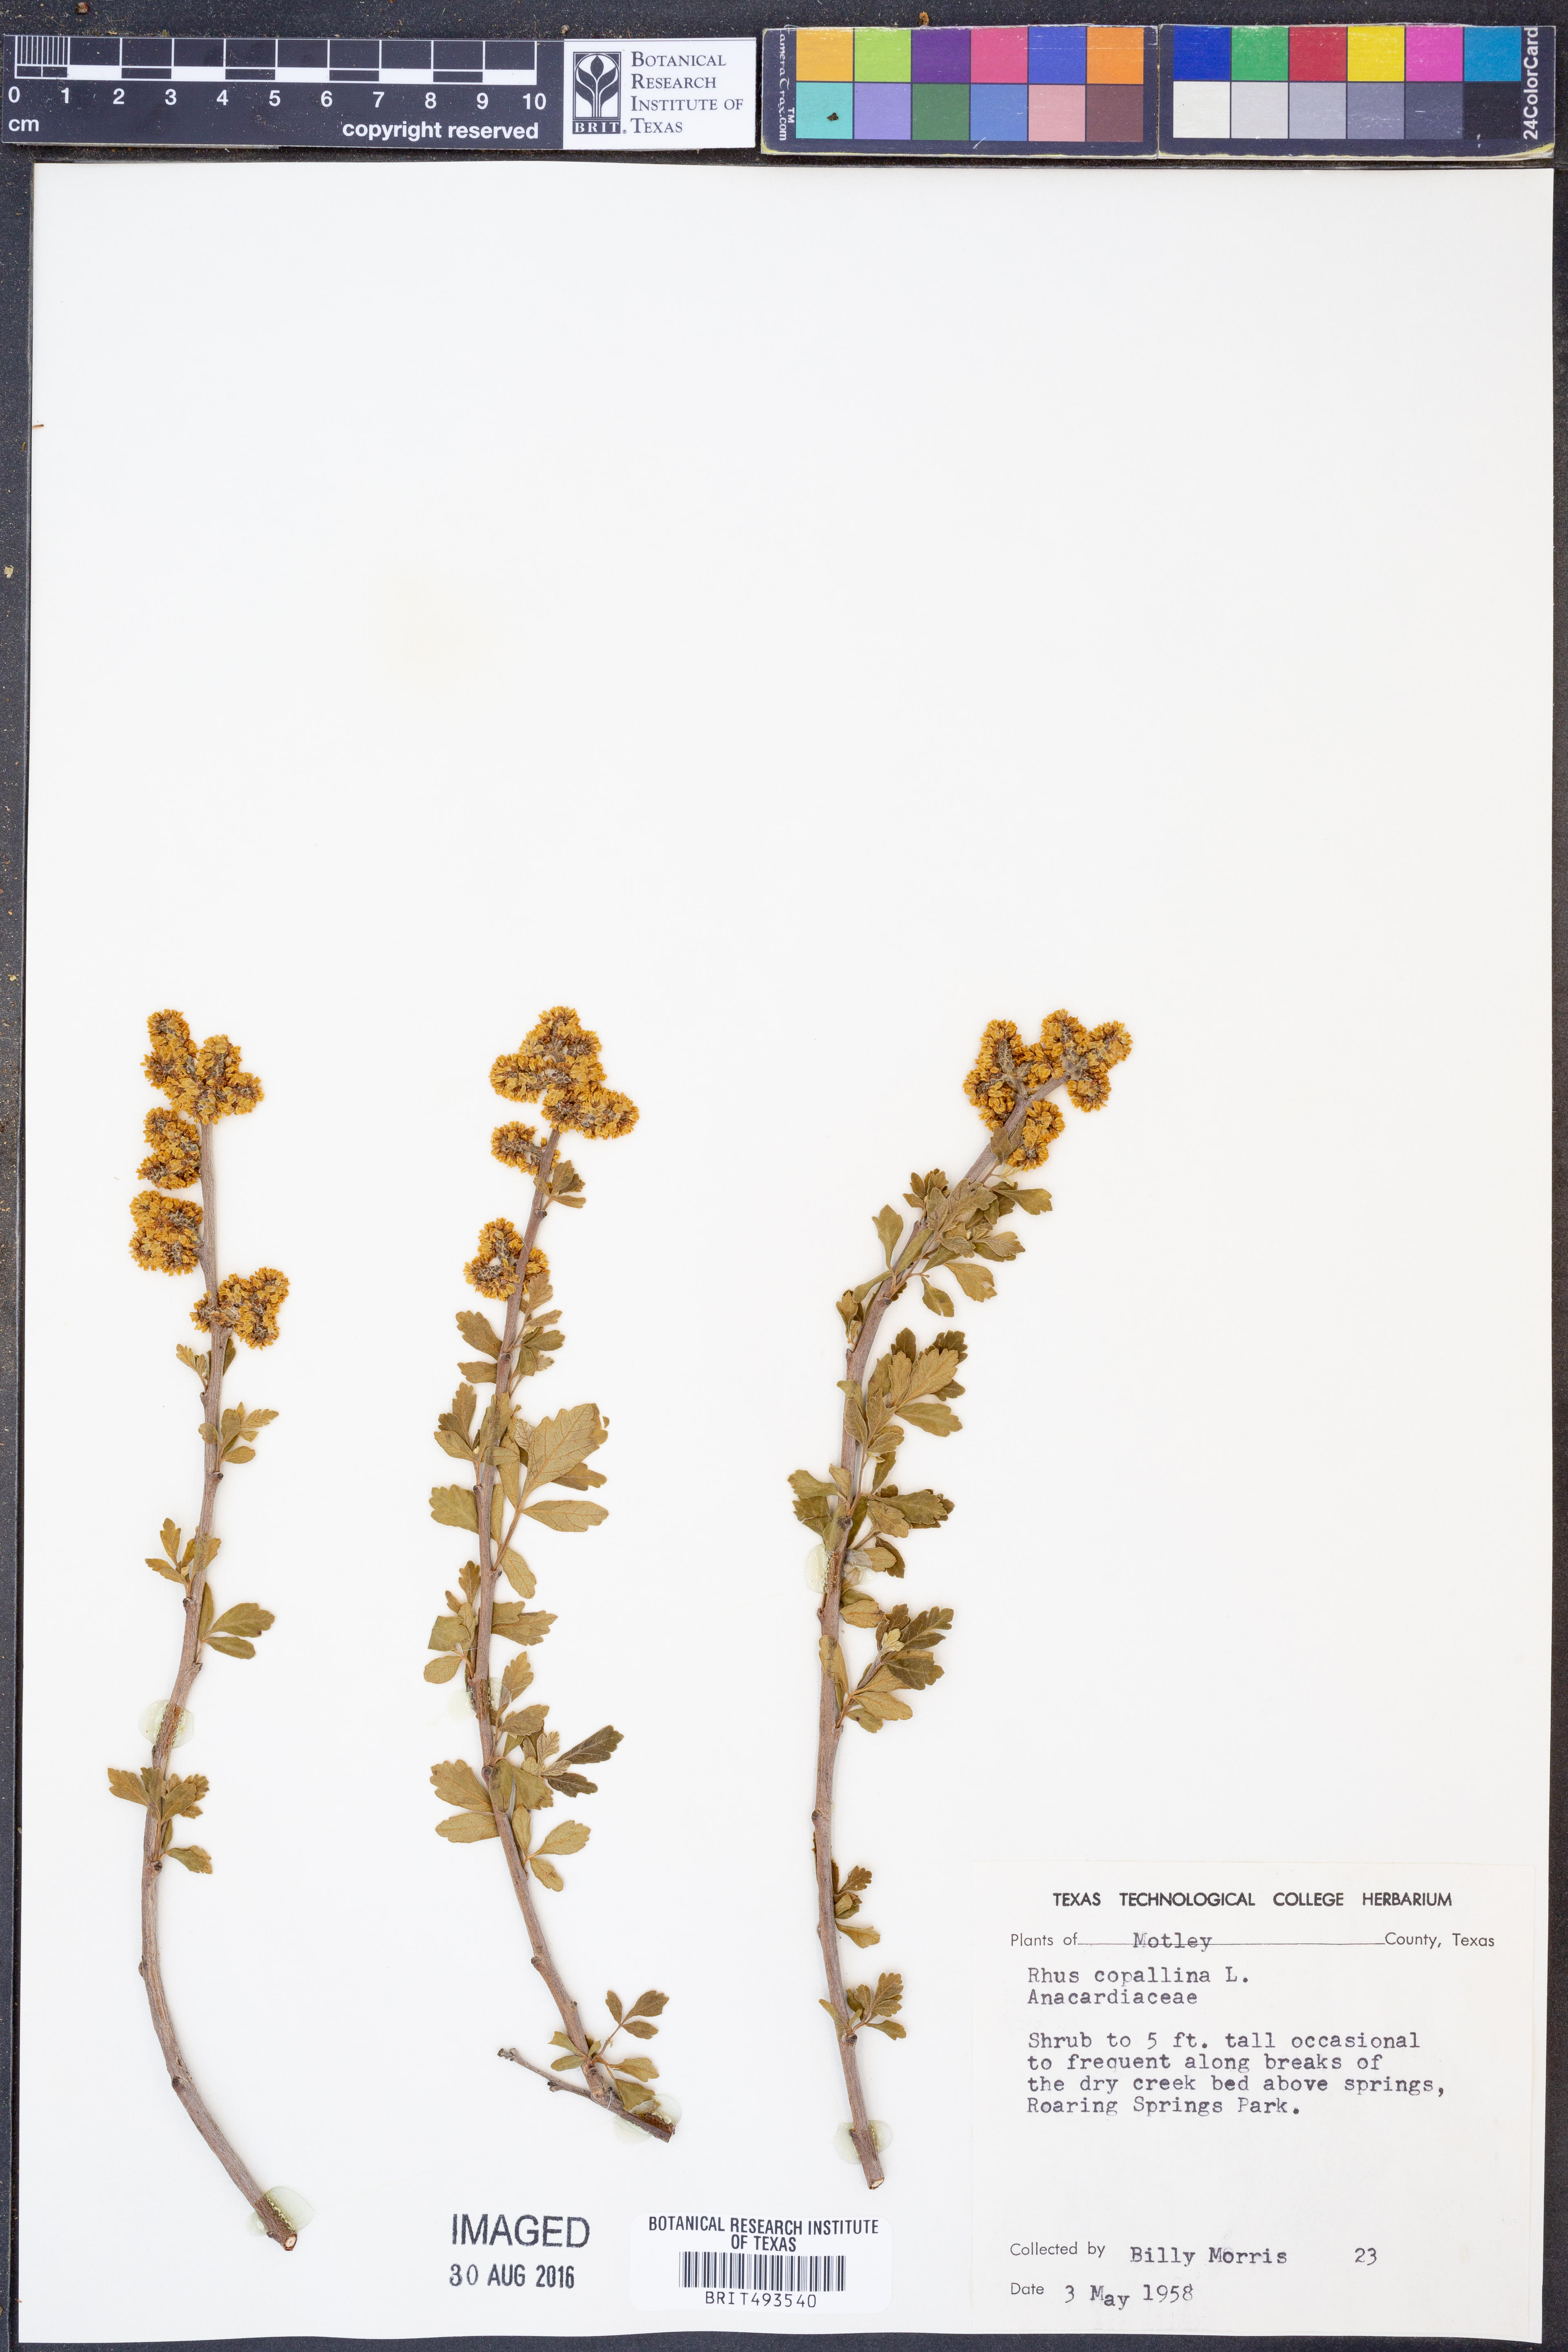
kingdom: Plantae
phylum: Tracheophyta
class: Magnoliopsida
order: Sapindales
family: Anacardiaceae
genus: Rhus
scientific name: Rhus copallina
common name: Shining sumac
